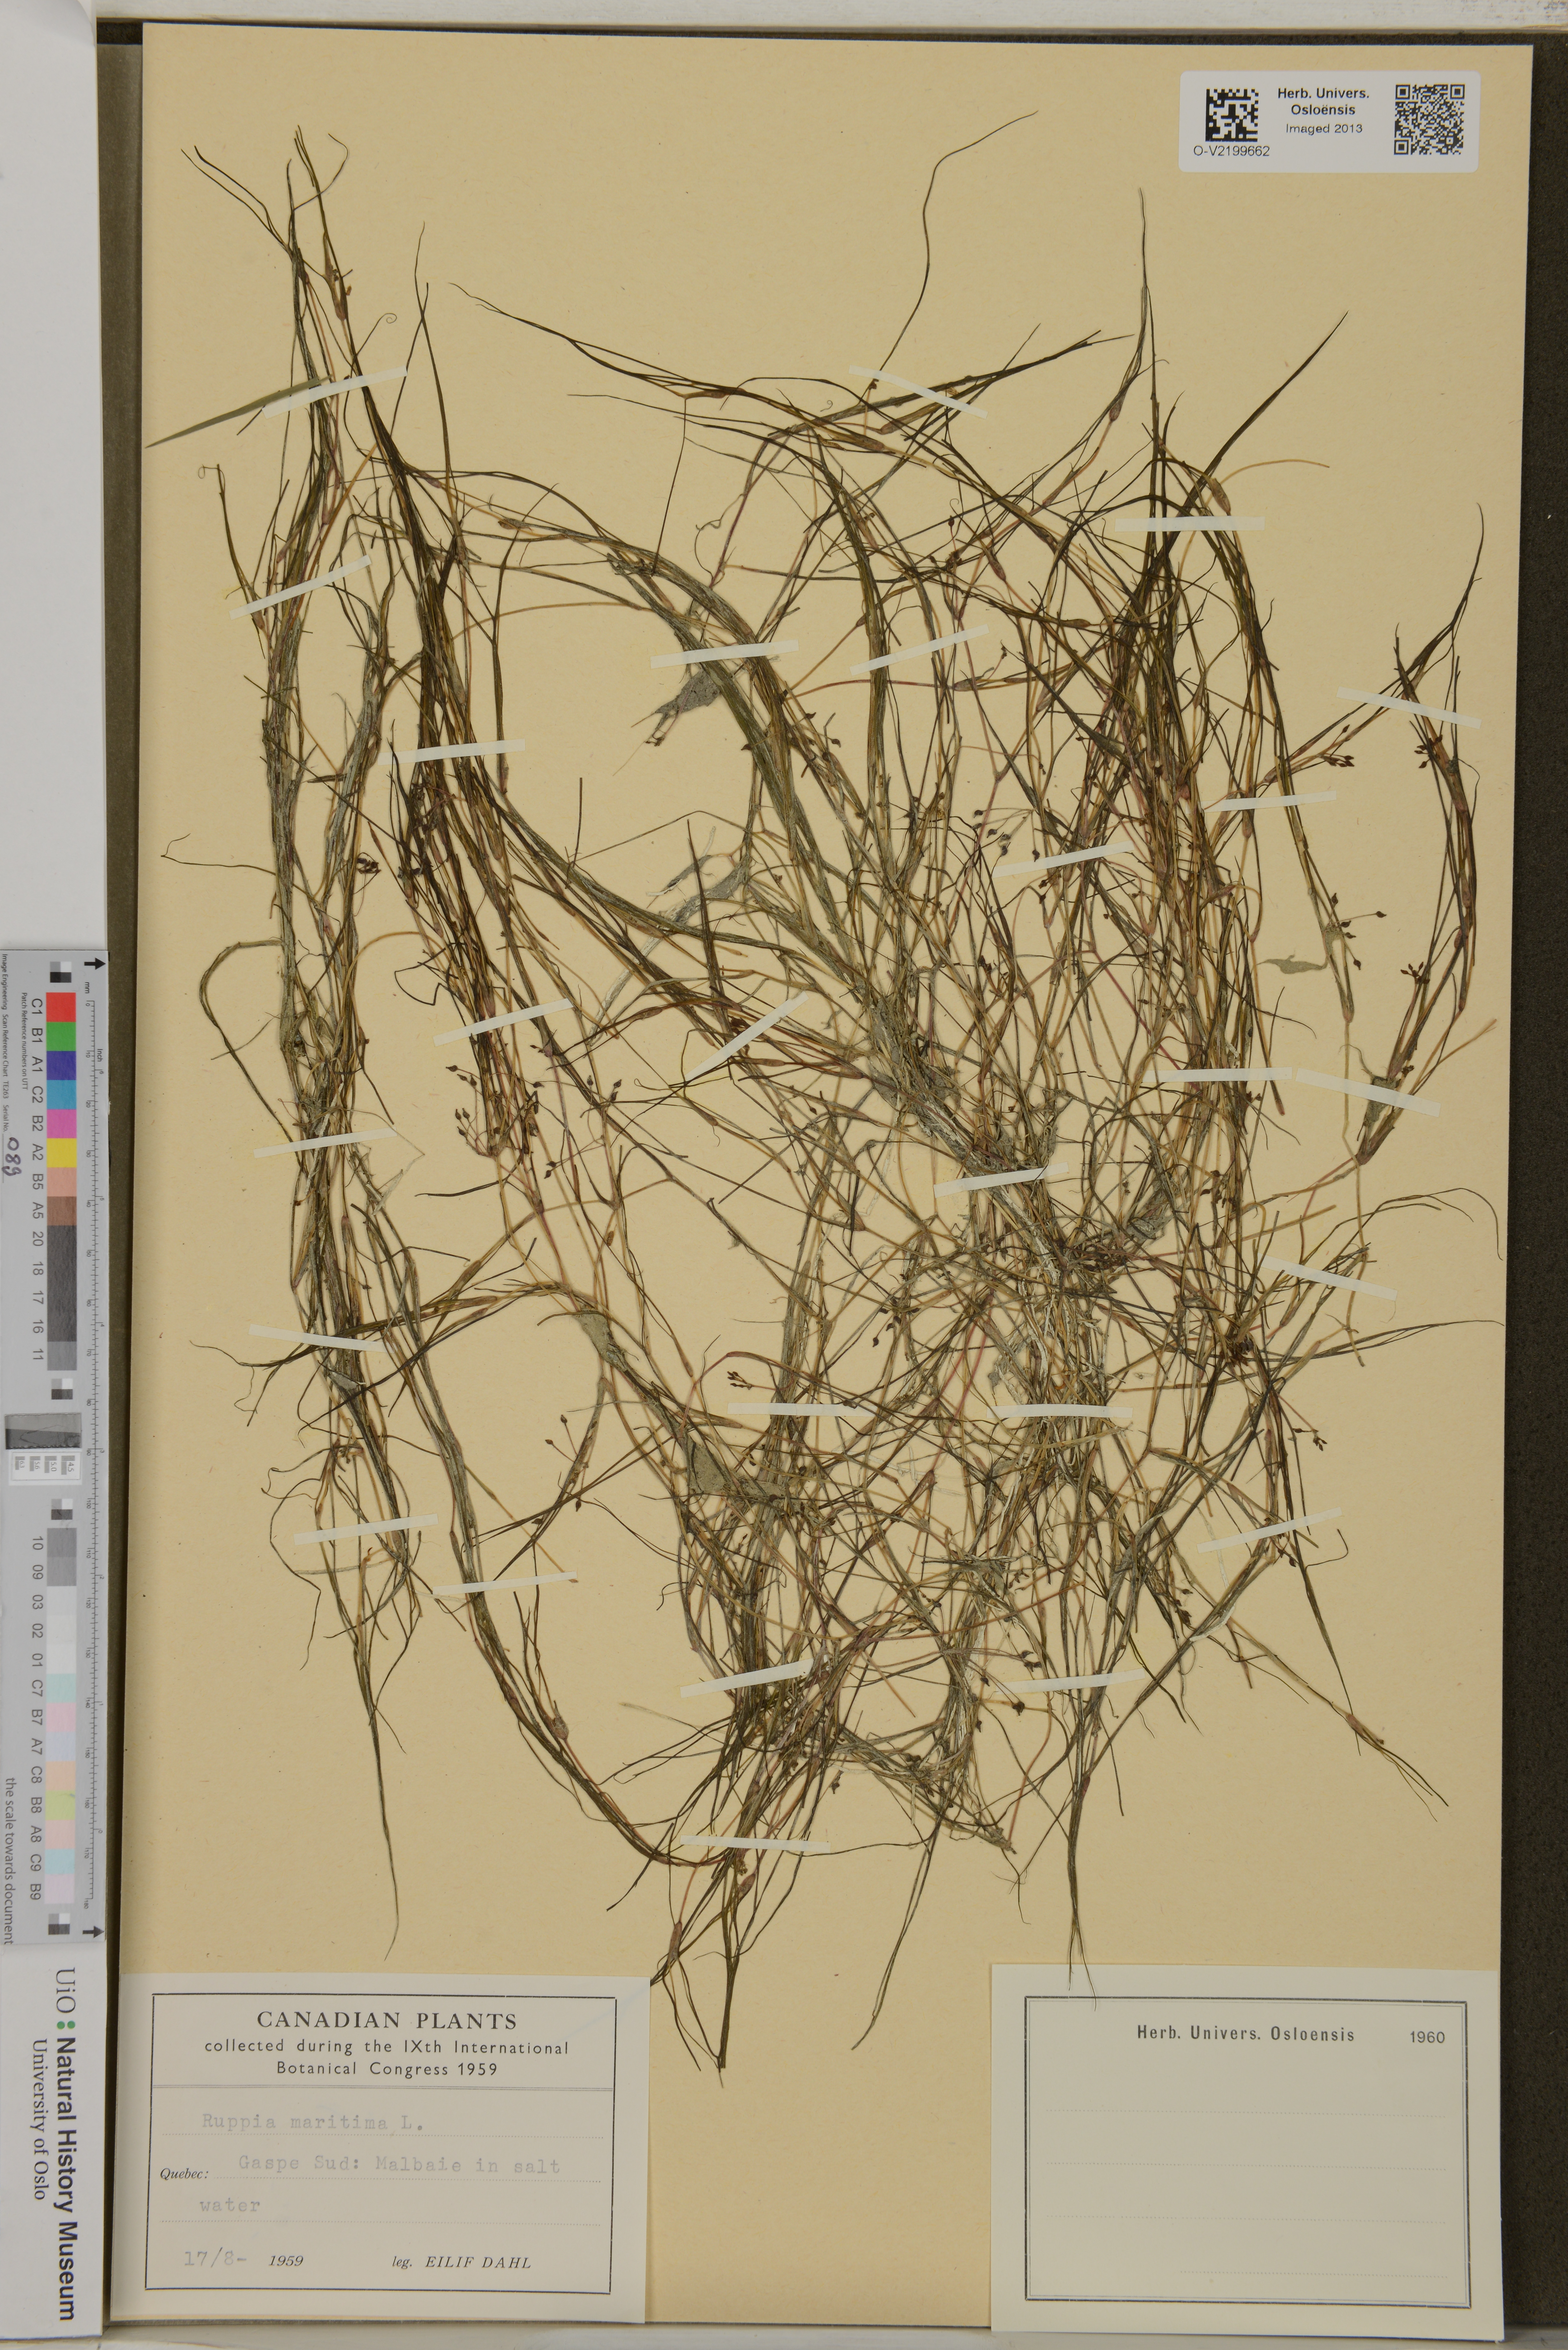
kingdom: Plantae
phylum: Tracheophyta
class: Liliopsida
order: Alismatales
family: Ruppiaceae
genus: Ruppia
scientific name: Ruppia maritima
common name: Beaked tasselweed
